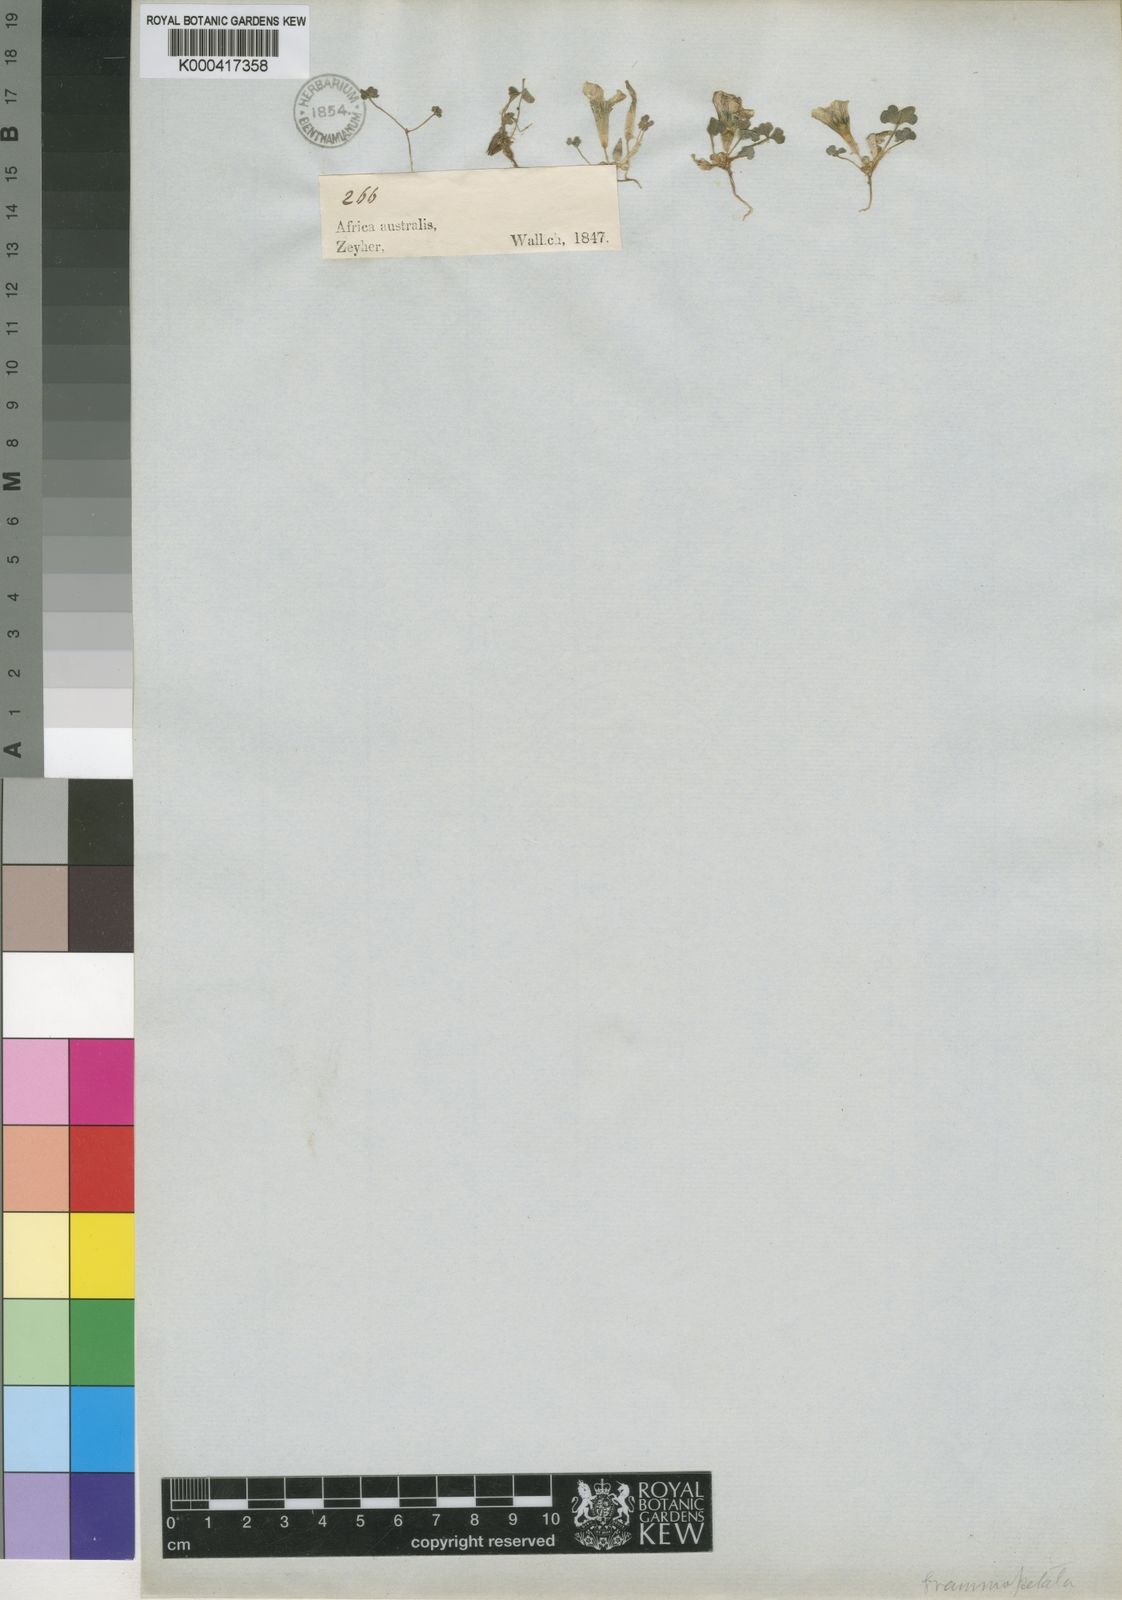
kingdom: Plantae
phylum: Tracheophyta
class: Magnoliopsida
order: Oxalidales
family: Oxalidaceae
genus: Oxalis
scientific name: Oxalis grammopetala
